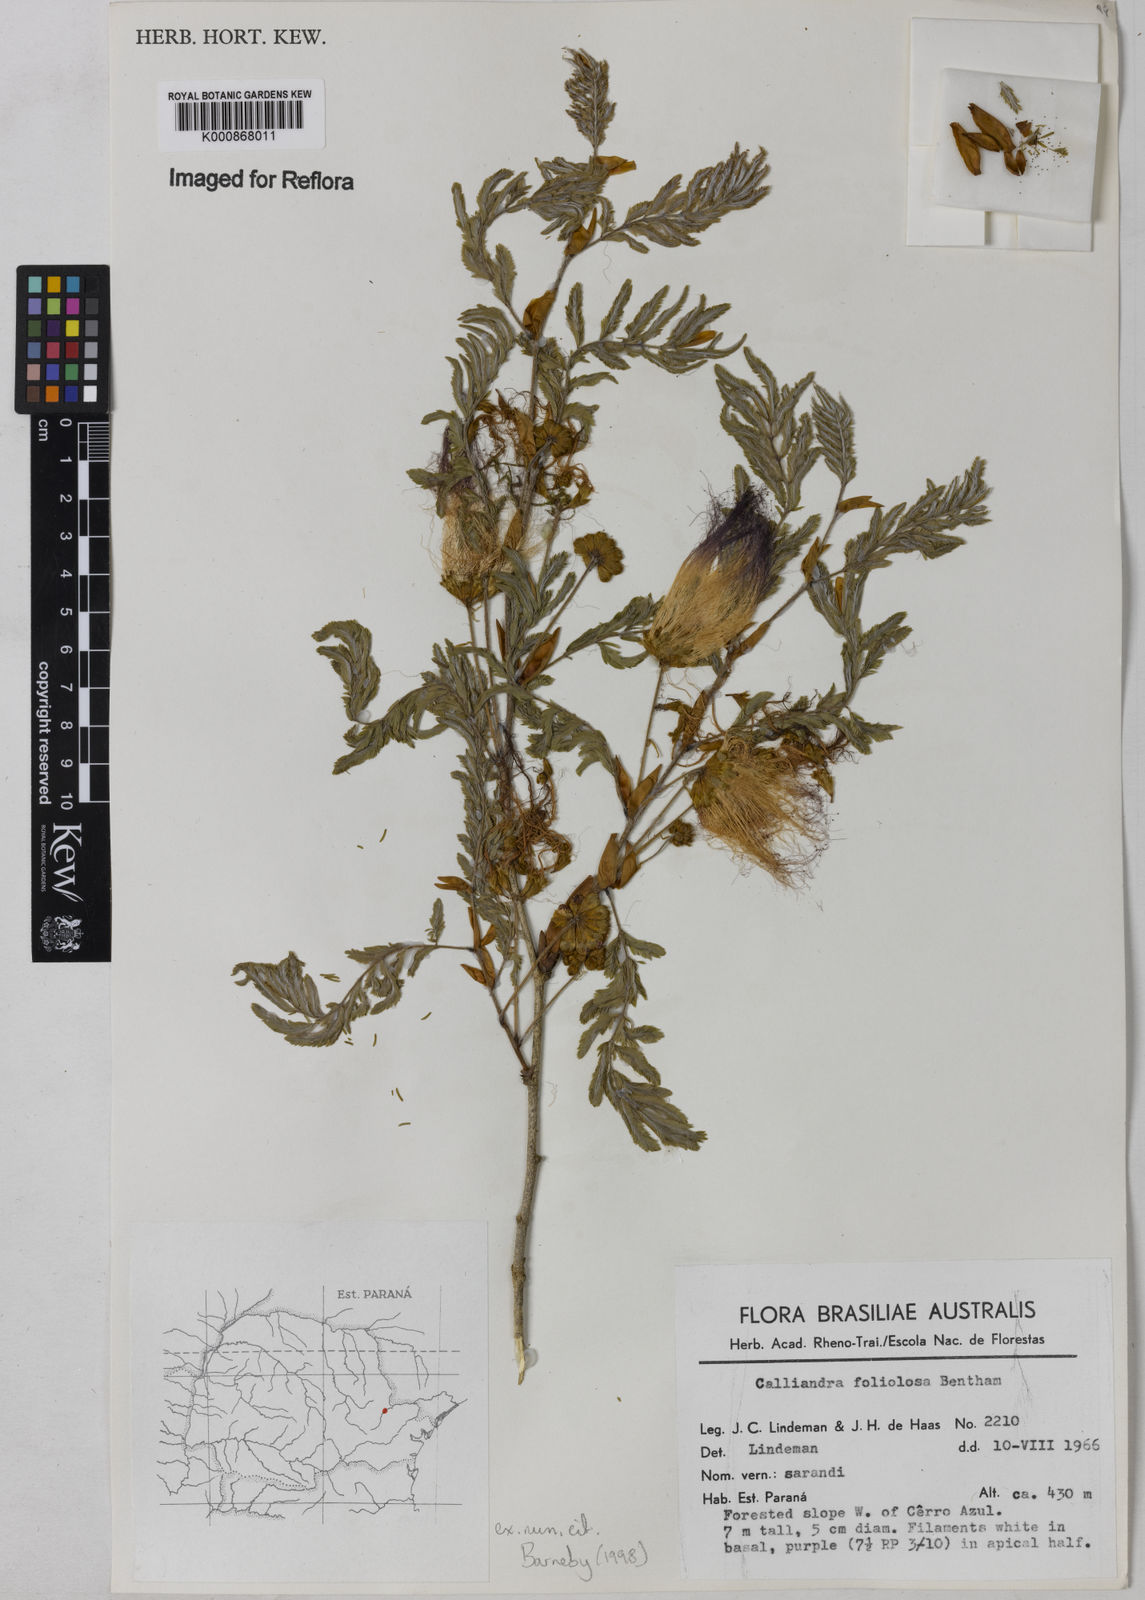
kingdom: Plantae
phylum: Tracheophyta
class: Magnoliopsida
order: Fabales
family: Fabaceae
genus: Calliandra
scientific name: Calliandra foliolosa
